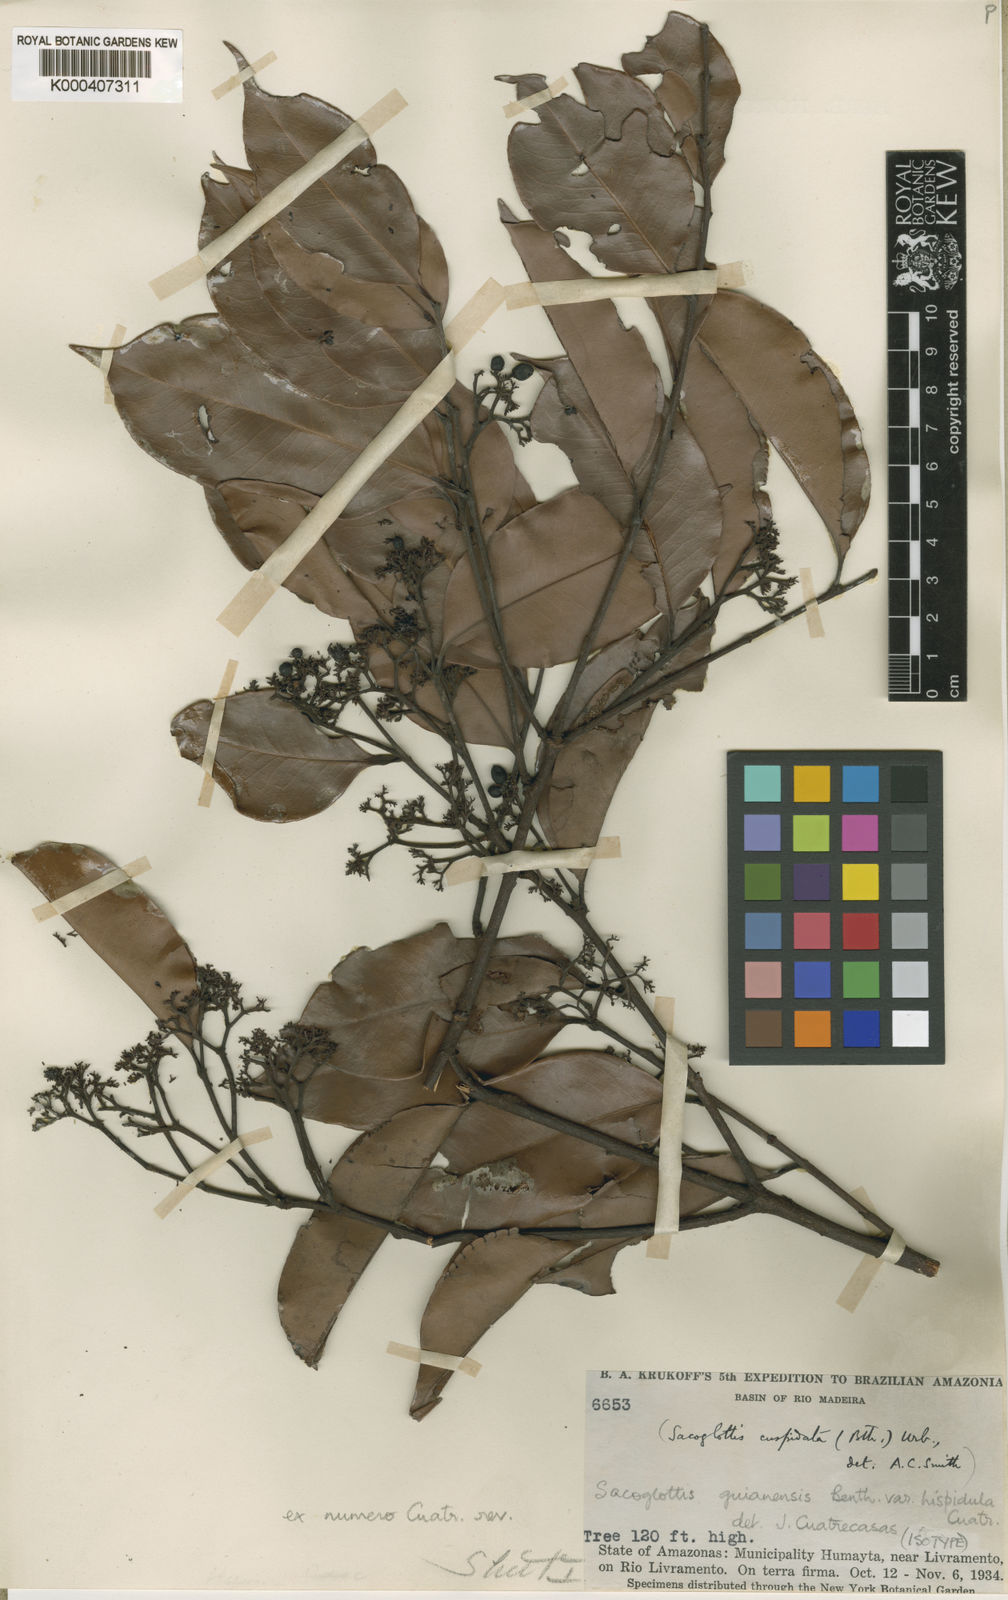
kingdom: Plantae
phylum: Tracheophyta
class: Magnoliopsida
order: Malpighiales
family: Humiriaceae
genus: Sacoglottis
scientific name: Sacoglottis guianensis
